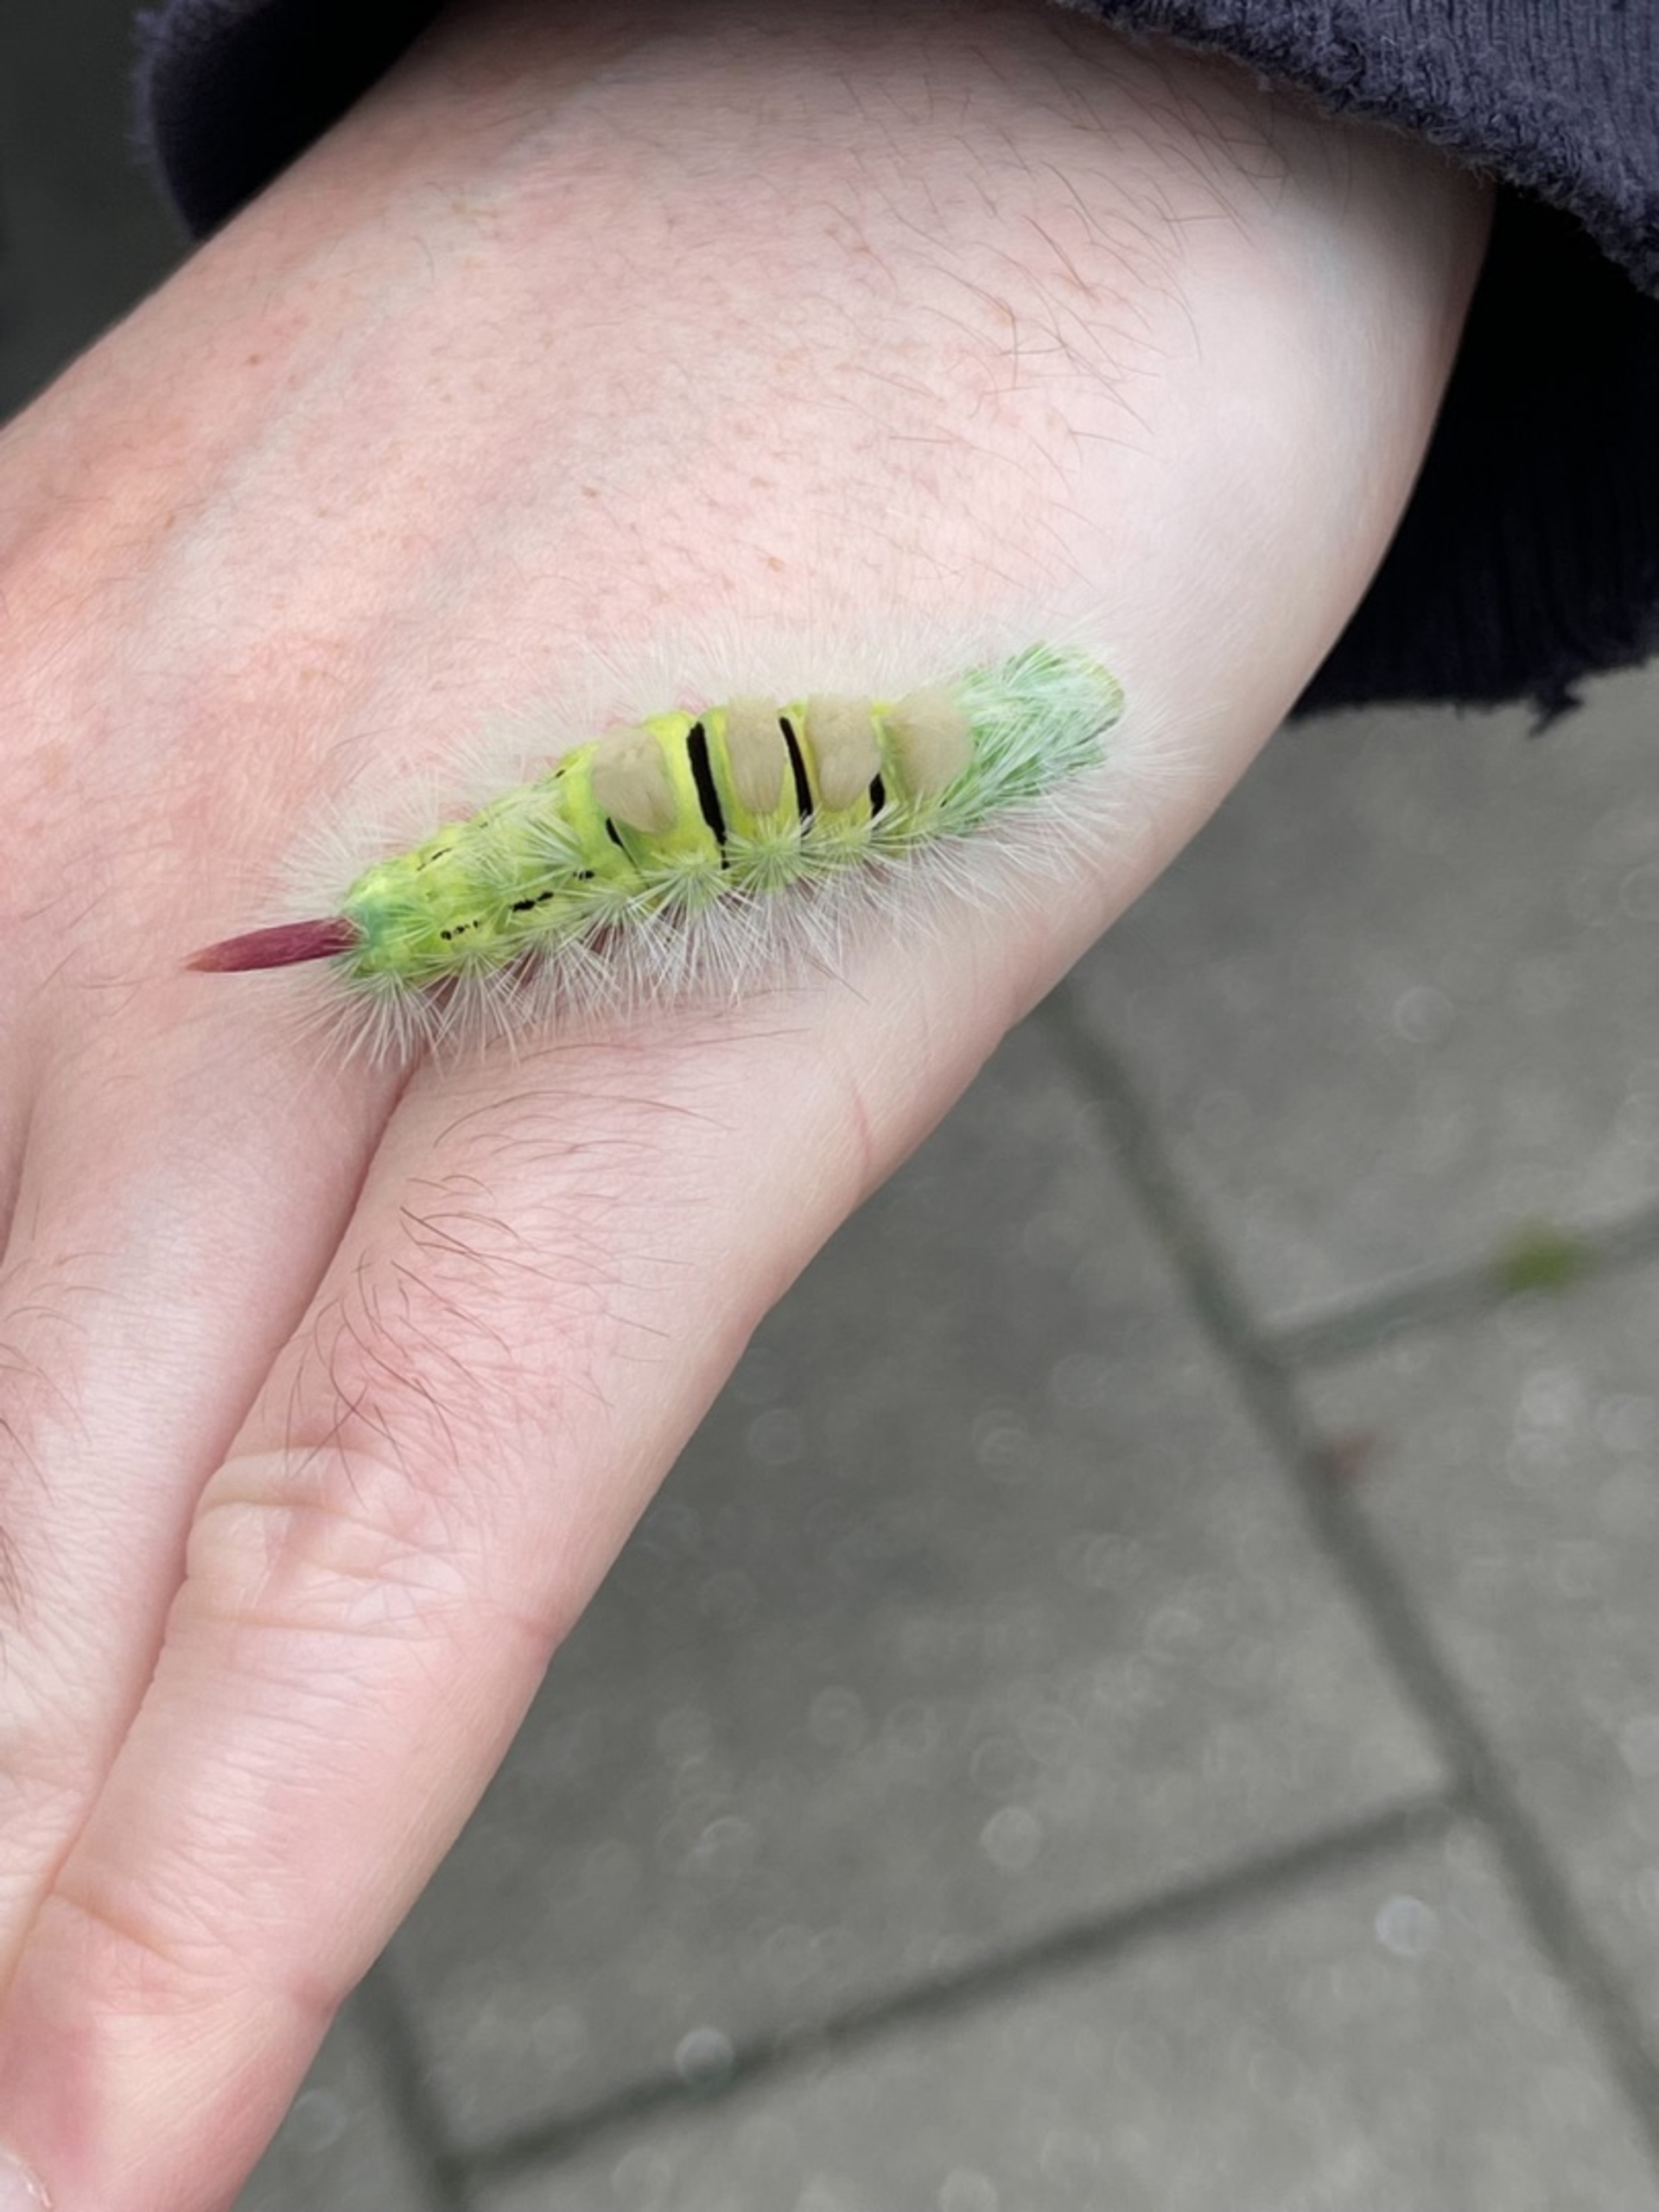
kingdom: Animalia
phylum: Arthropoda
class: Insecta
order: Lepidoptera
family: Erebidae
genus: Calliteara
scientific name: Calliteara pudibunda
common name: Bøgenonne
